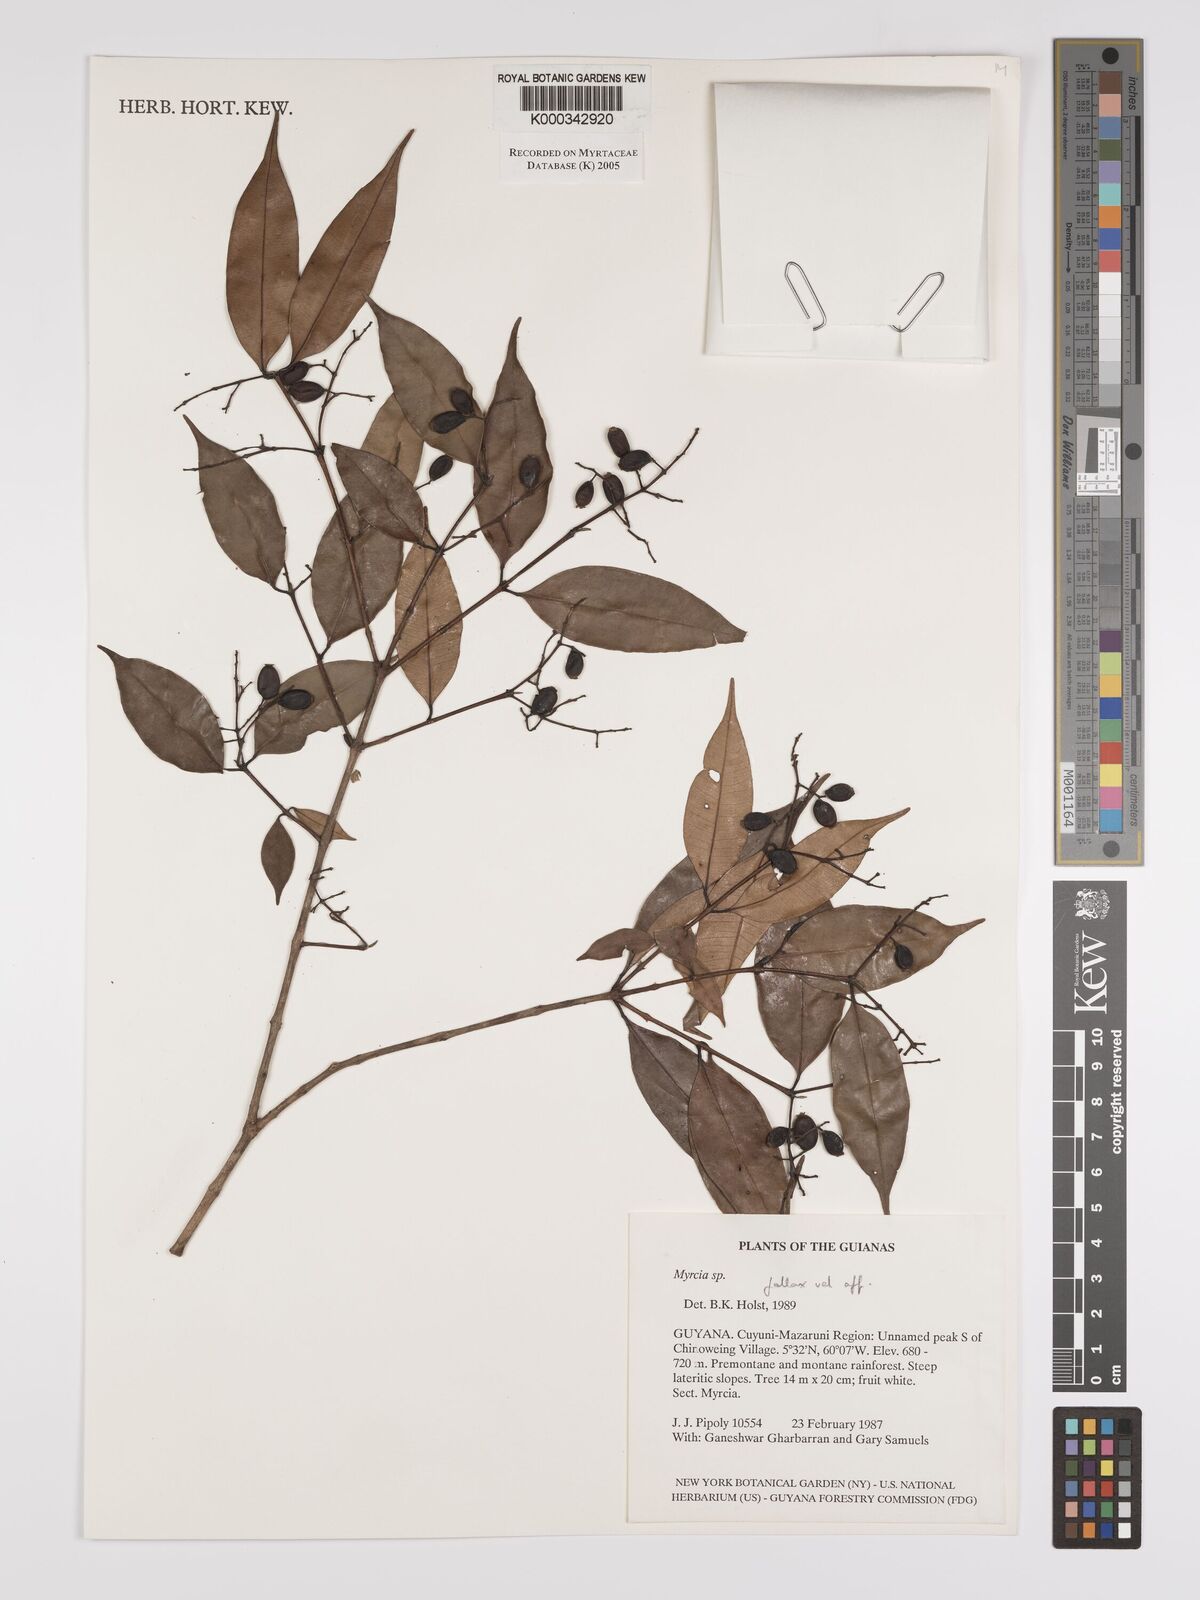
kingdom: Plantae
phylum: Tracheophyta
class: Magnoliopsida
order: Myrtales
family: Myrtaceae
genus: Myrcia
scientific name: Myrcia splendens
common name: Surinam cherry
